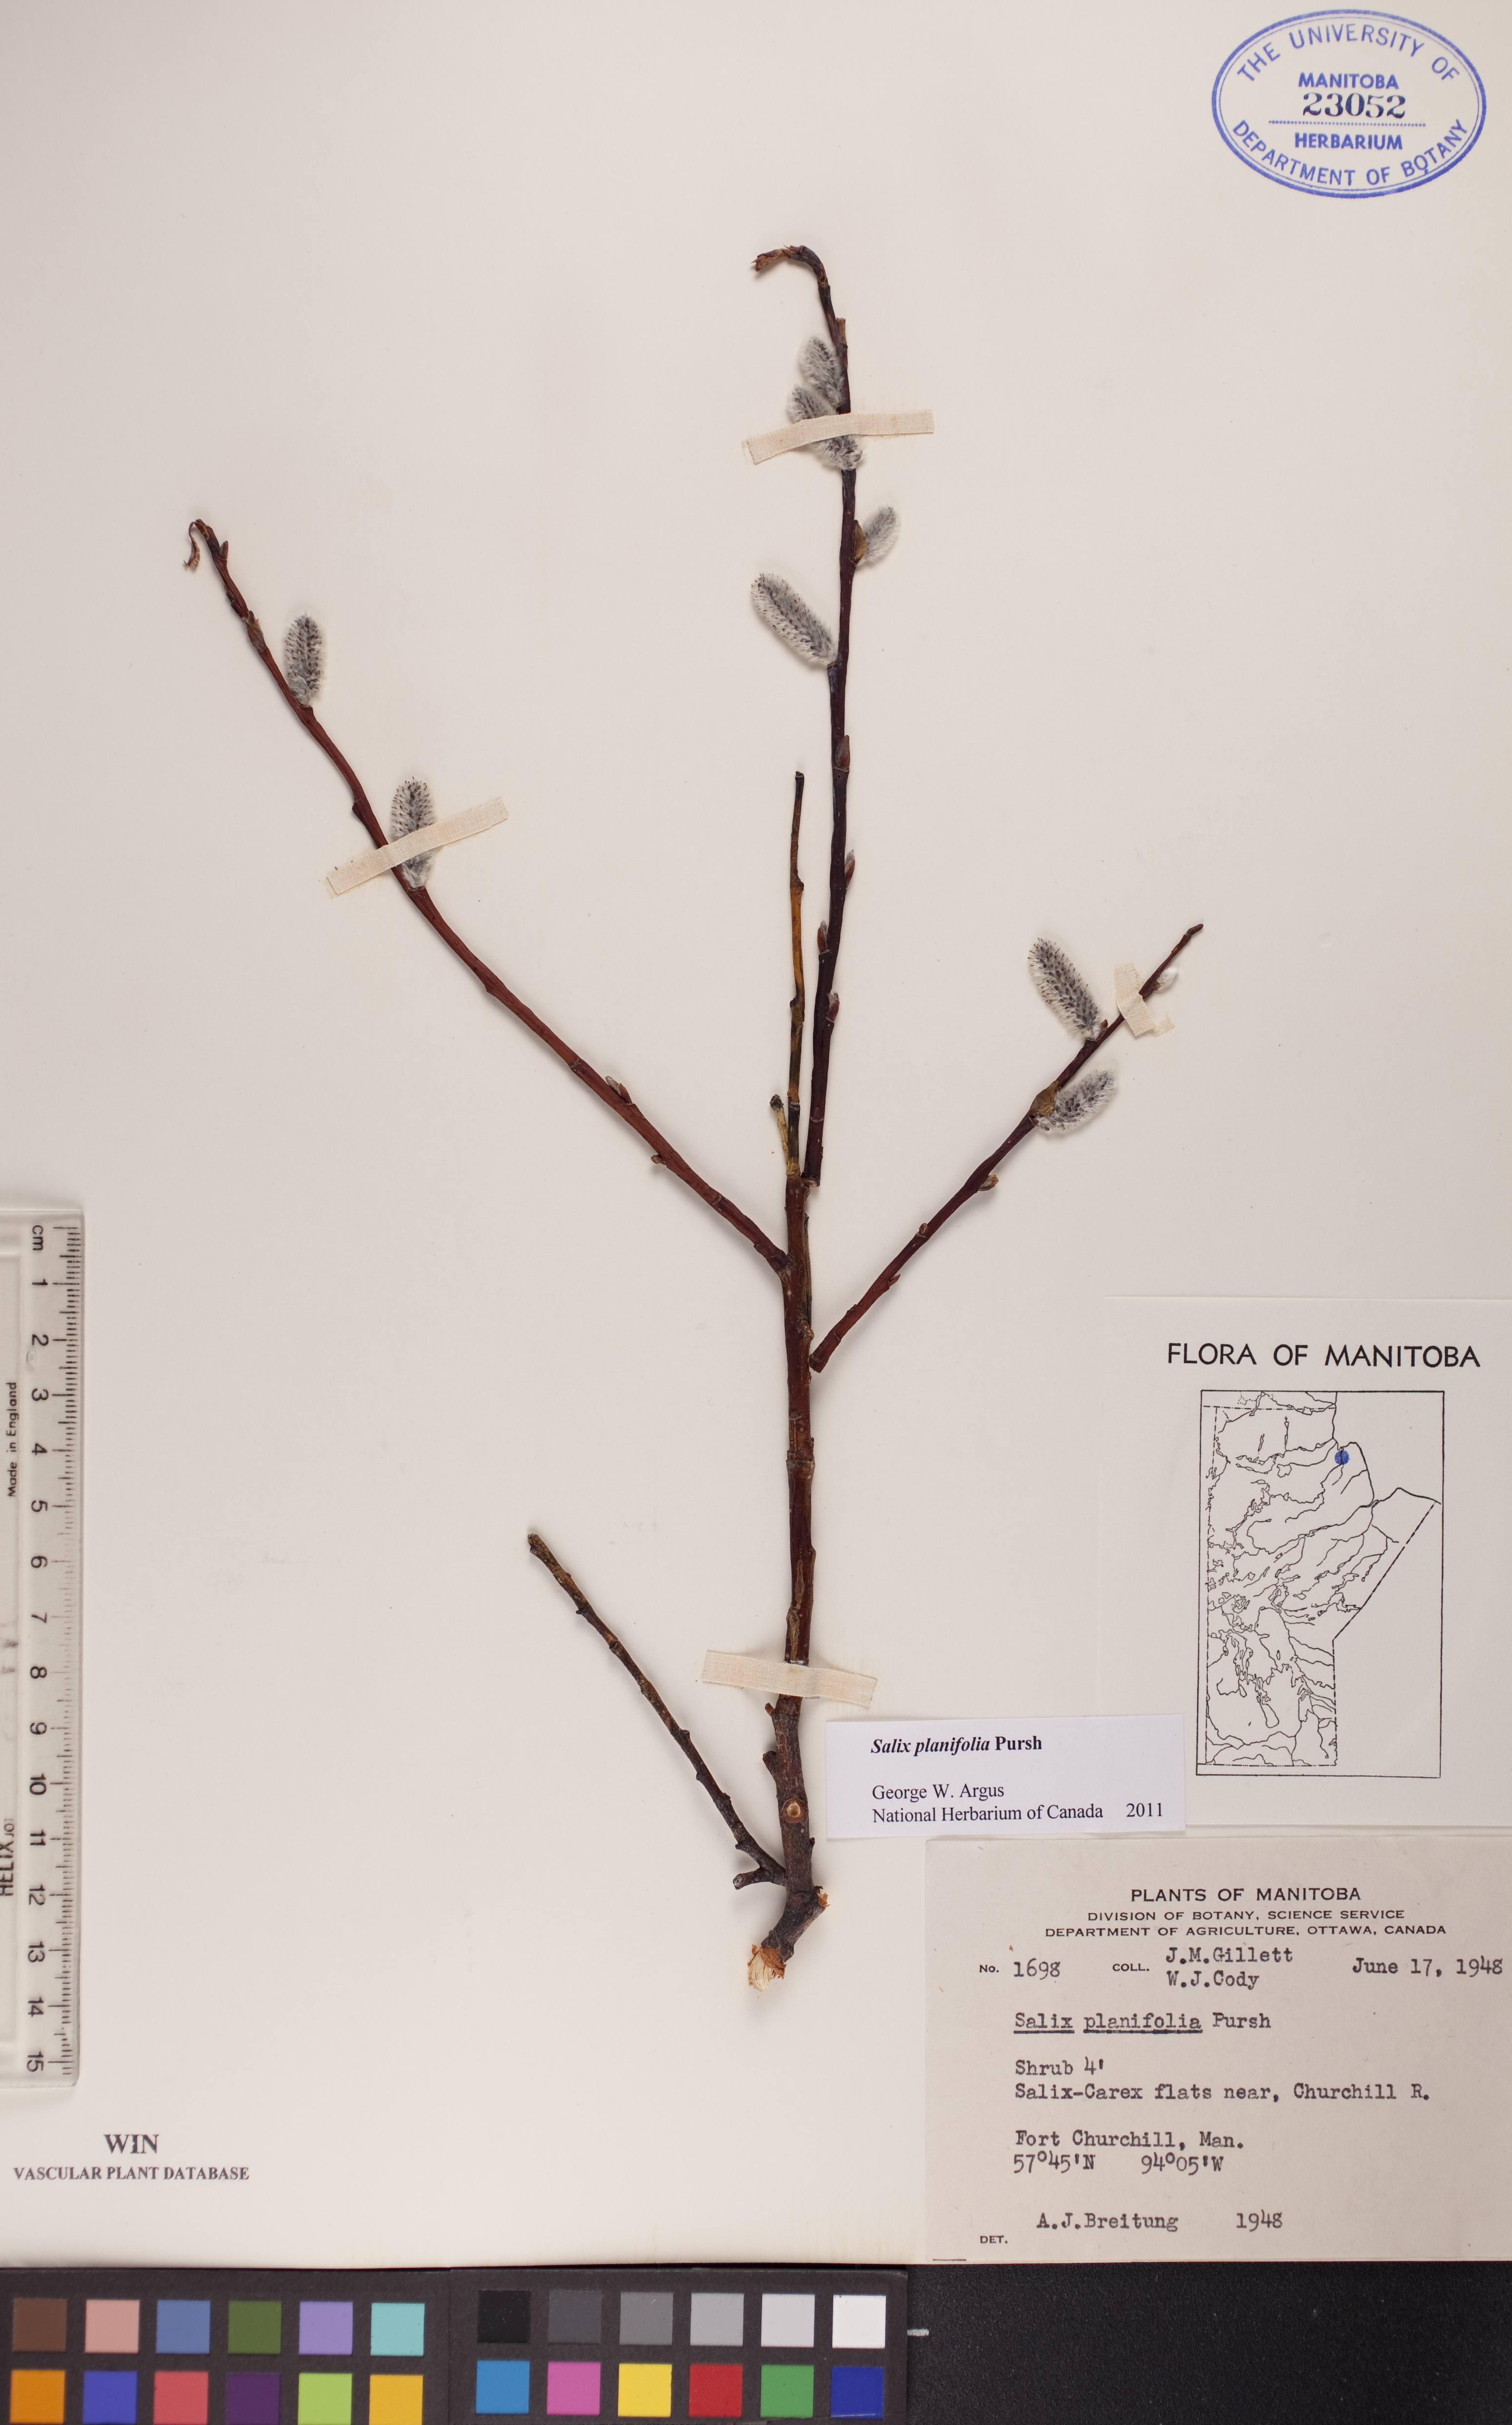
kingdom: Plantae
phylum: Tracheophyta
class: Magnoliopsida
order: Malpighiales
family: Salicaceae
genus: Salix
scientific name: Salix planifolia
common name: Mountain willow
